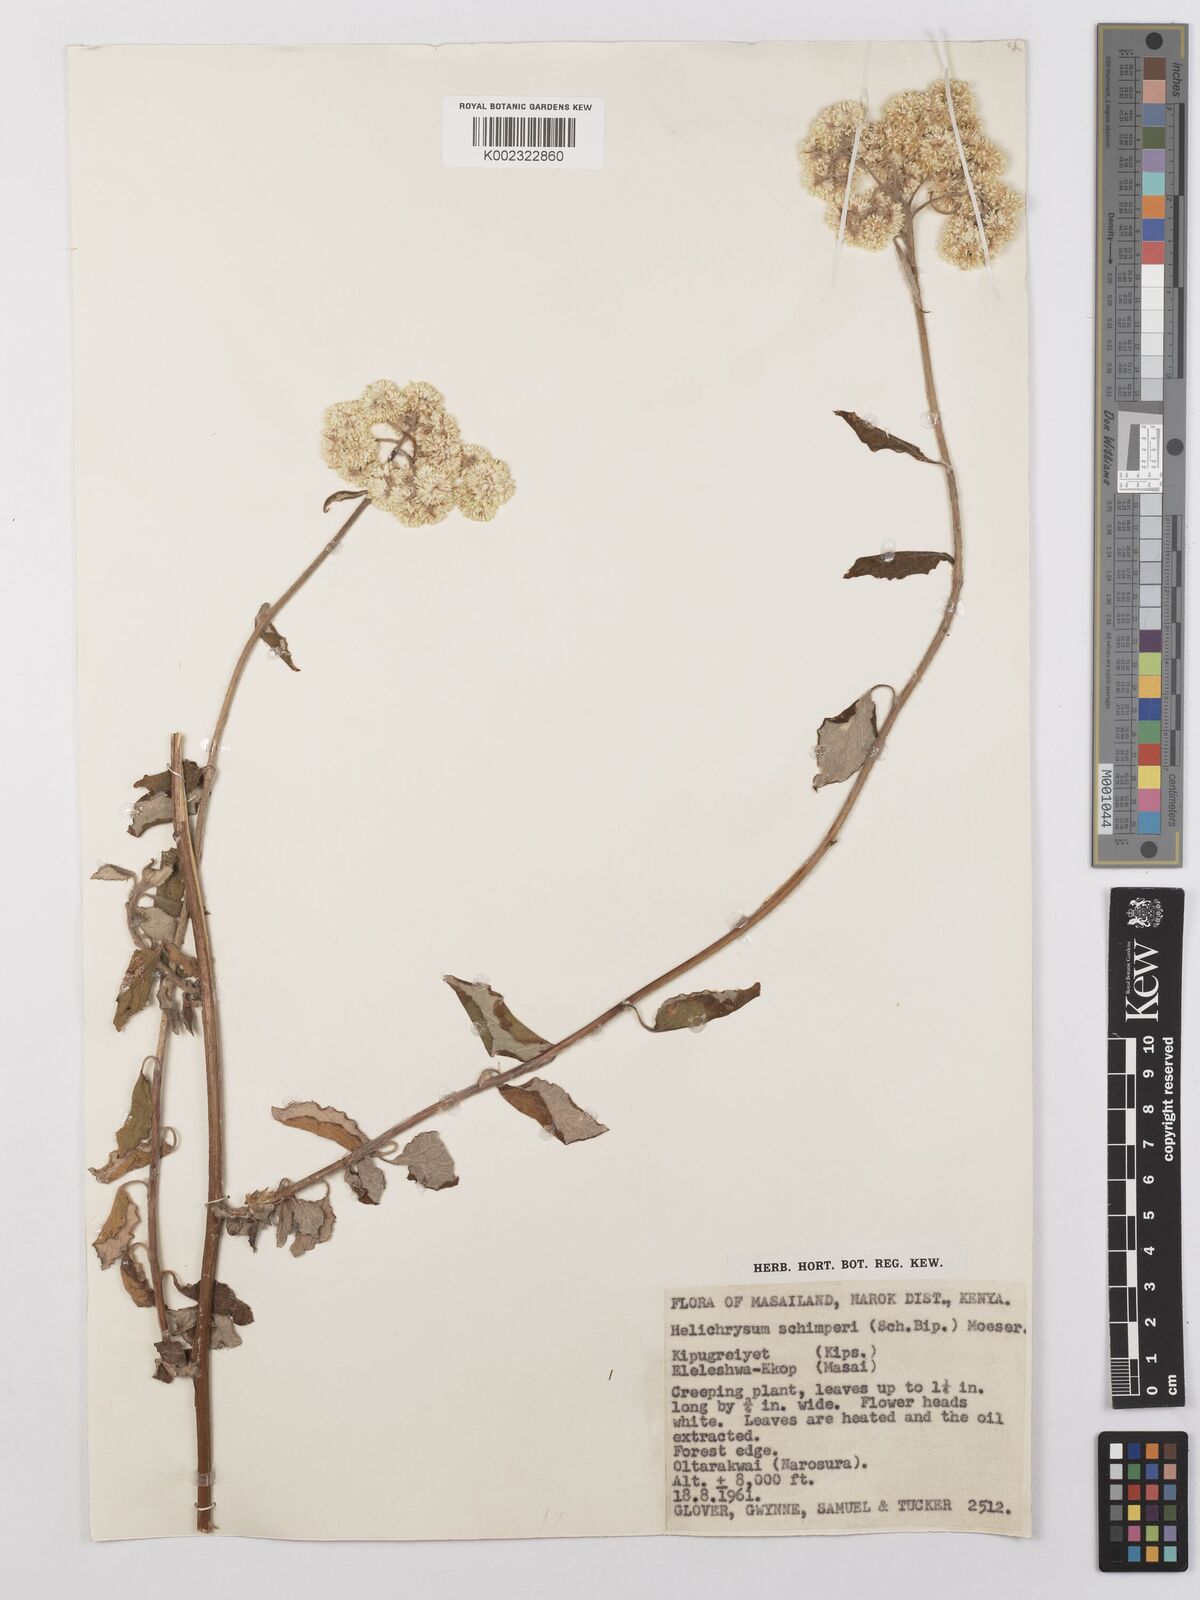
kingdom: Plantae
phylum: Tracheophyta
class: Magnoliopsida
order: Asterales
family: Asteraceae
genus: Helichrysum
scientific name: Helichrysum schimperi
